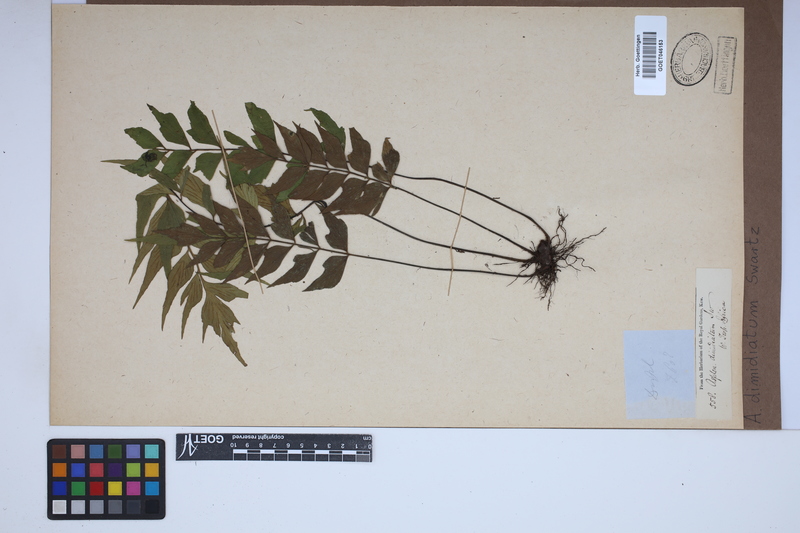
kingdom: Plantae
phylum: Tracheophyta
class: Polypodiopsida
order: Polypodiales
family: Aspleniaceae
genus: Asplenium
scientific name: Asplenium dimidiatum
